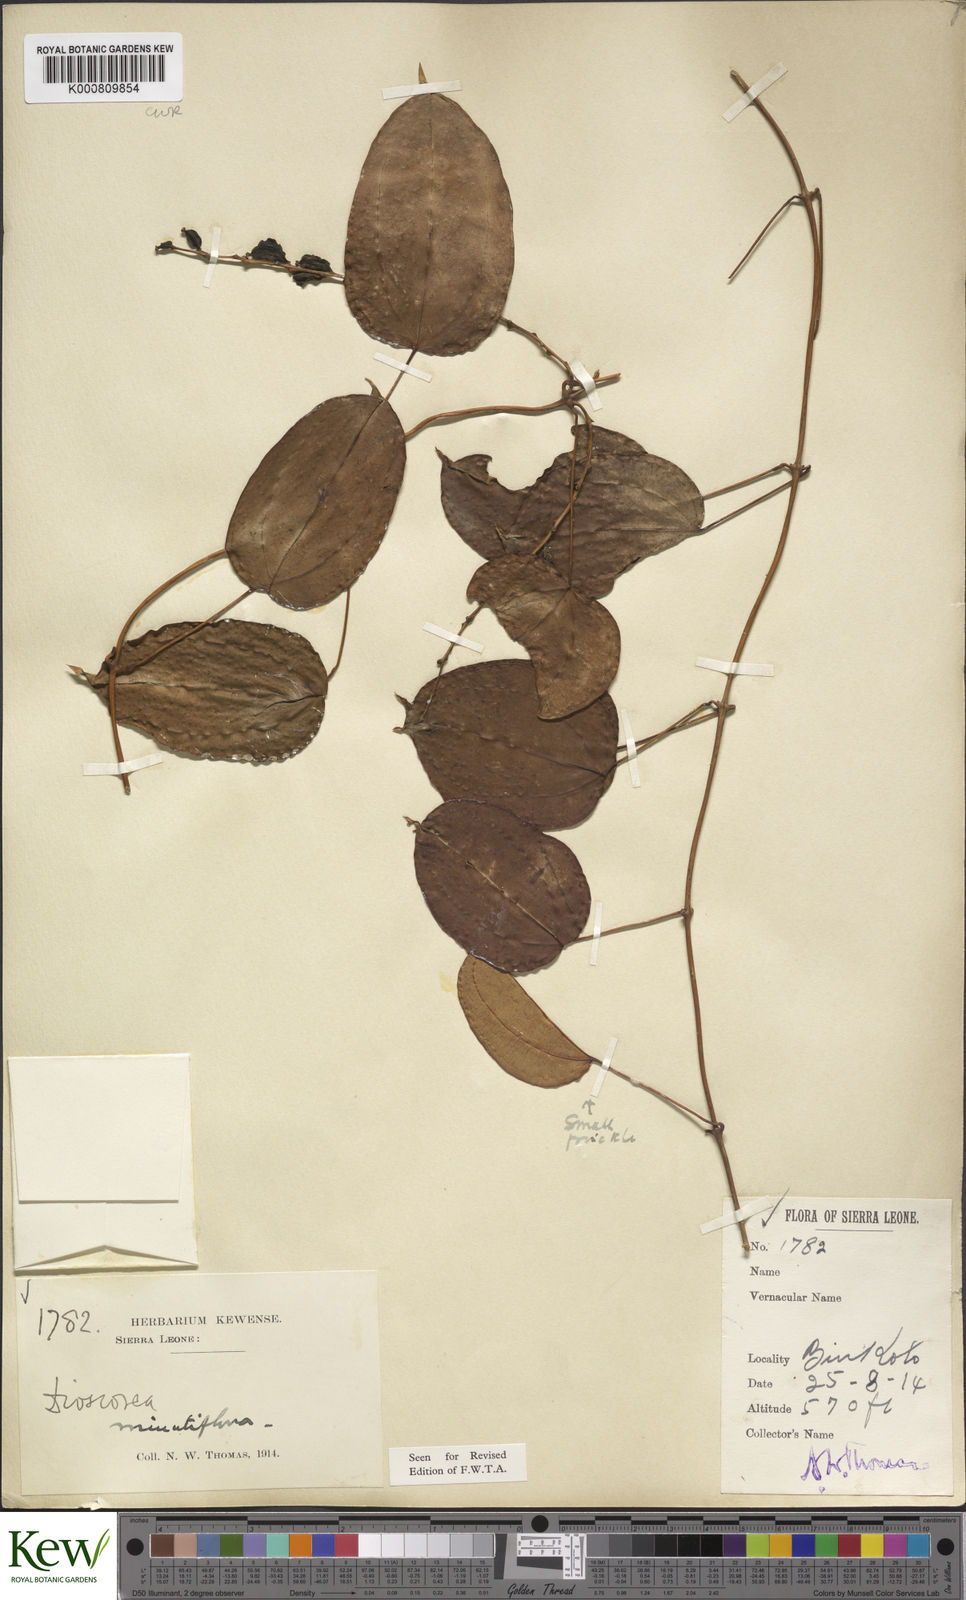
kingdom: Plantae
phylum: Tracheophyta
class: Liliopsida
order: Dioscoreales
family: Dioscoreaceae
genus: Dioscorea
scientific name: Dioscorea minutiflora
